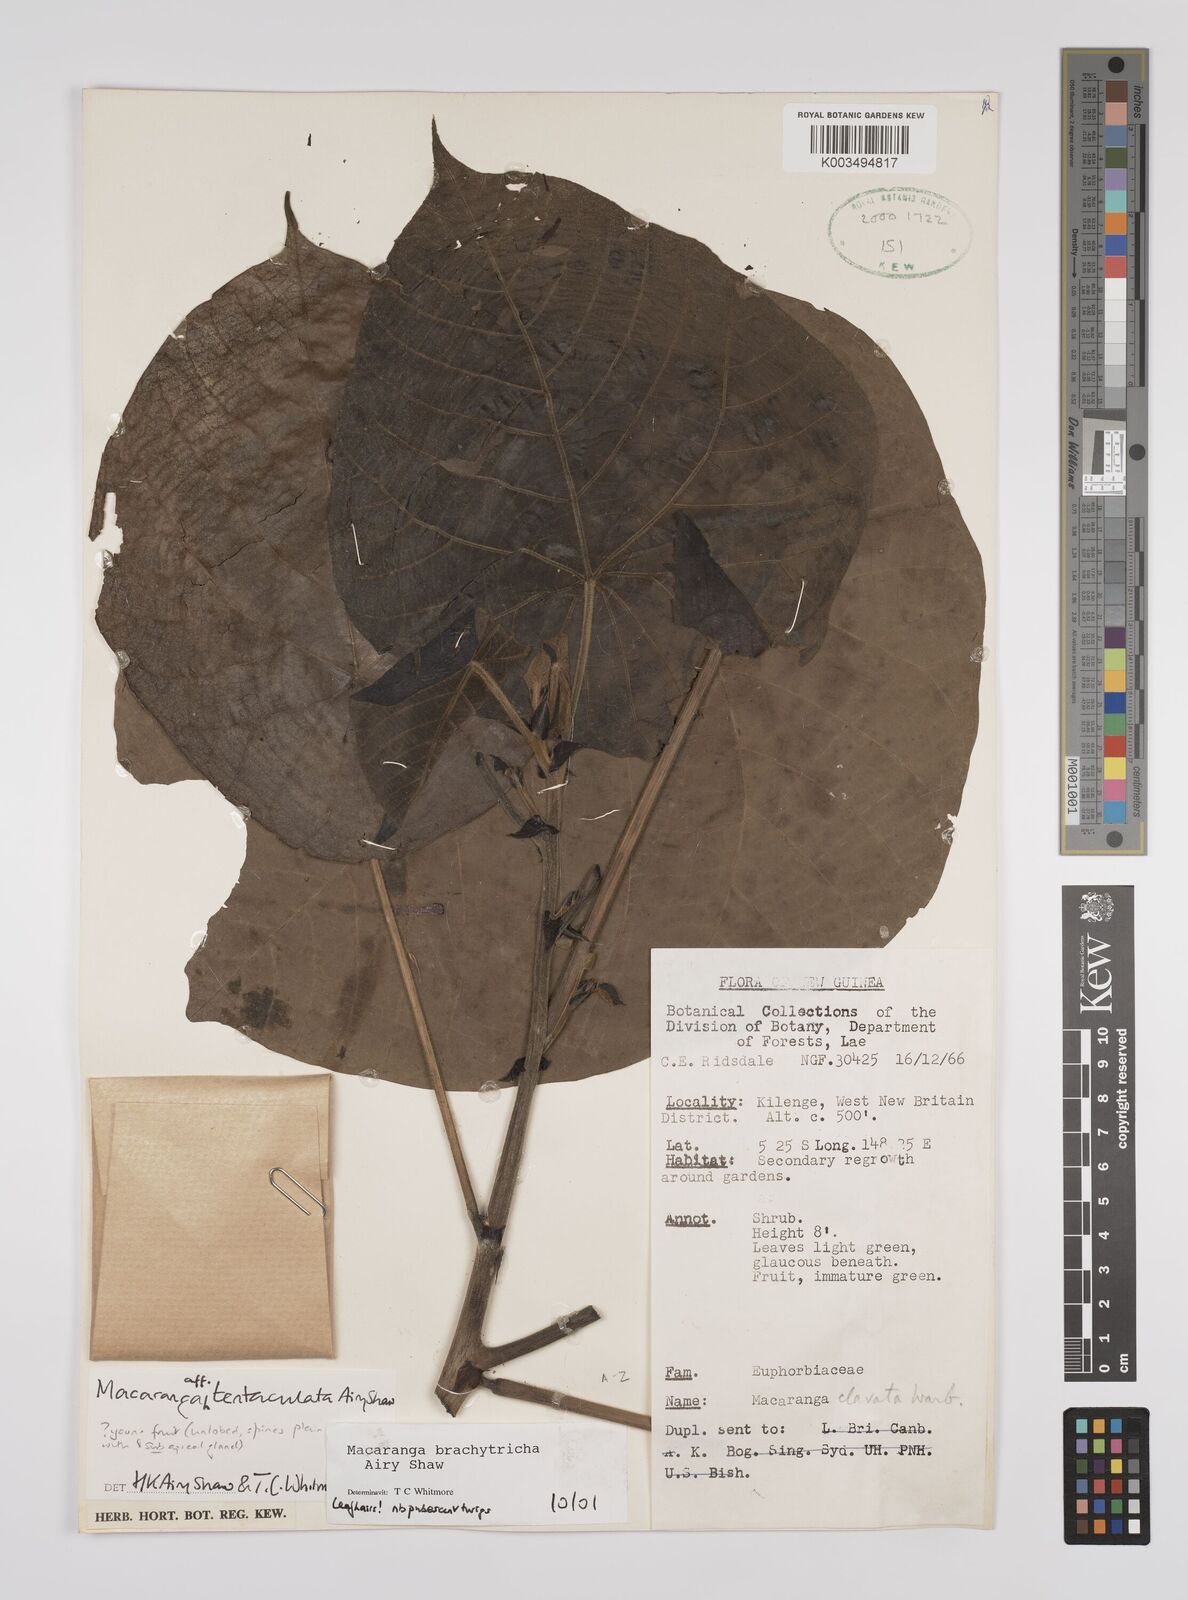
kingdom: Plantae
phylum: Tracheophyta
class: Magnoliopsida
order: Malpighiales
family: Euphorbiaceae
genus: Macaranga
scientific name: Macaranga brachythyrsa
